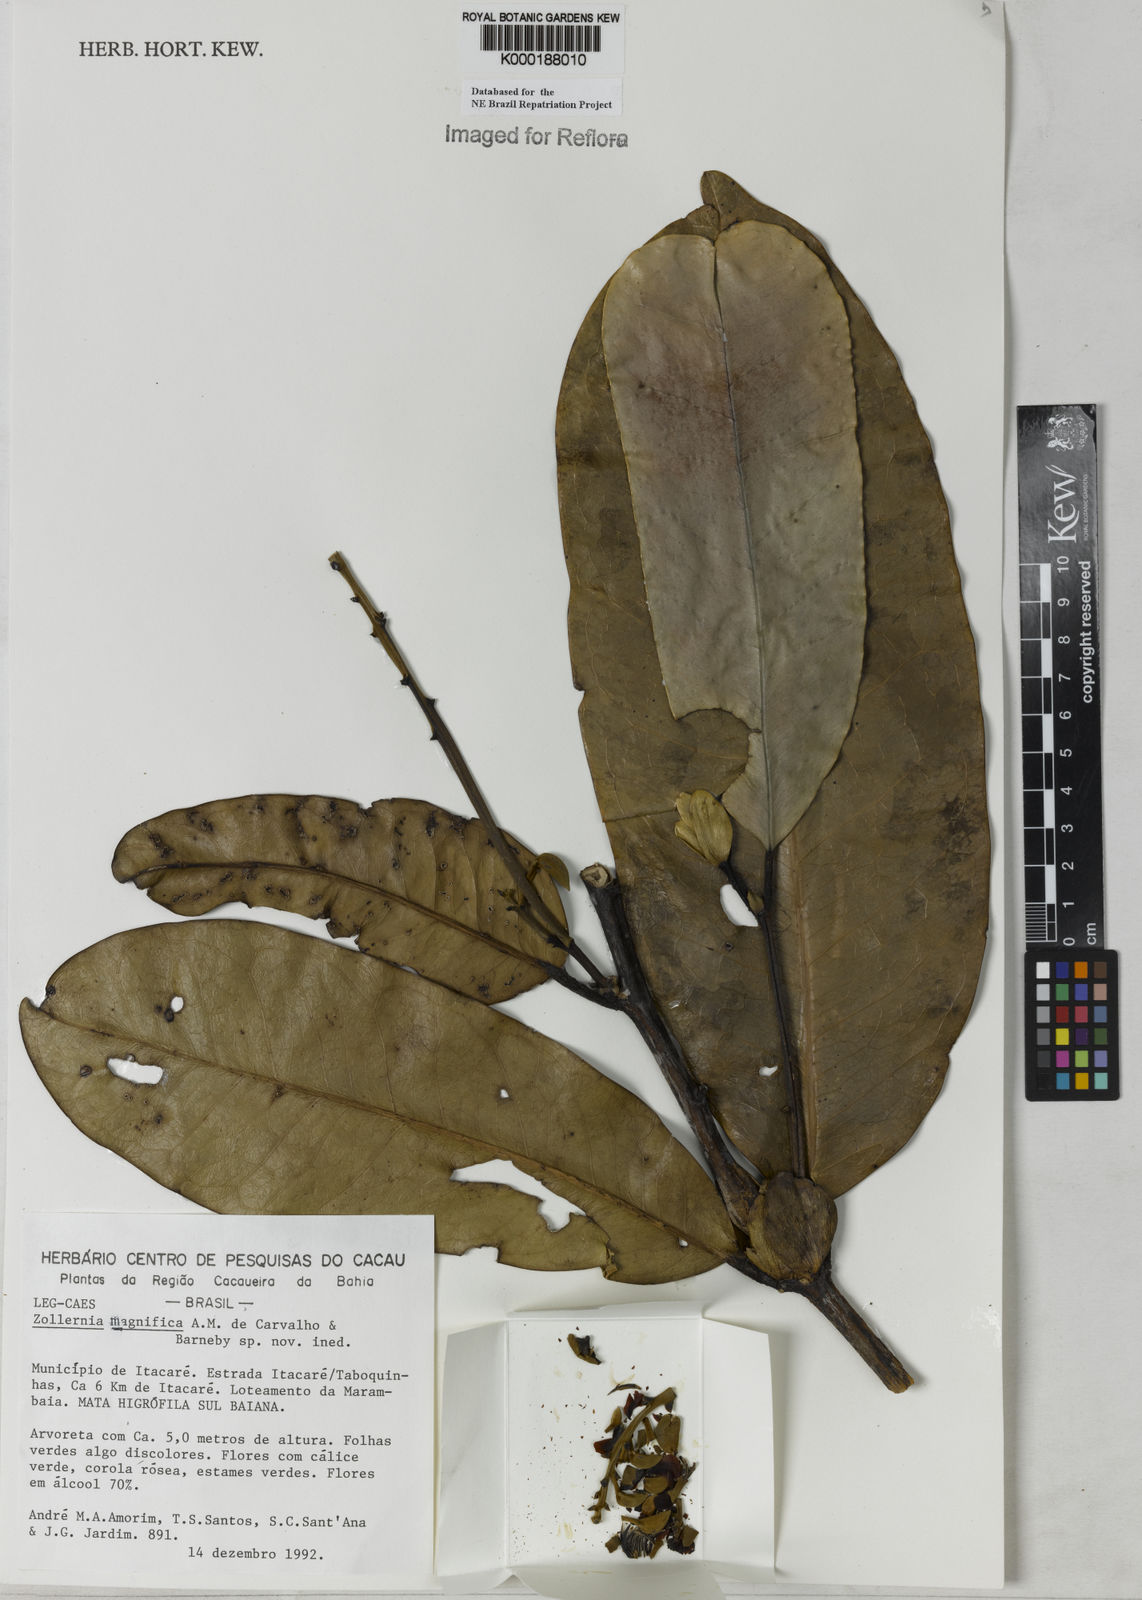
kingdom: Plantae
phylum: Tracheophyta
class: Magnoliopsida
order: Fabales
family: Fabaceae
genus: Zollernia
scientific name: Zollernia magnifica
